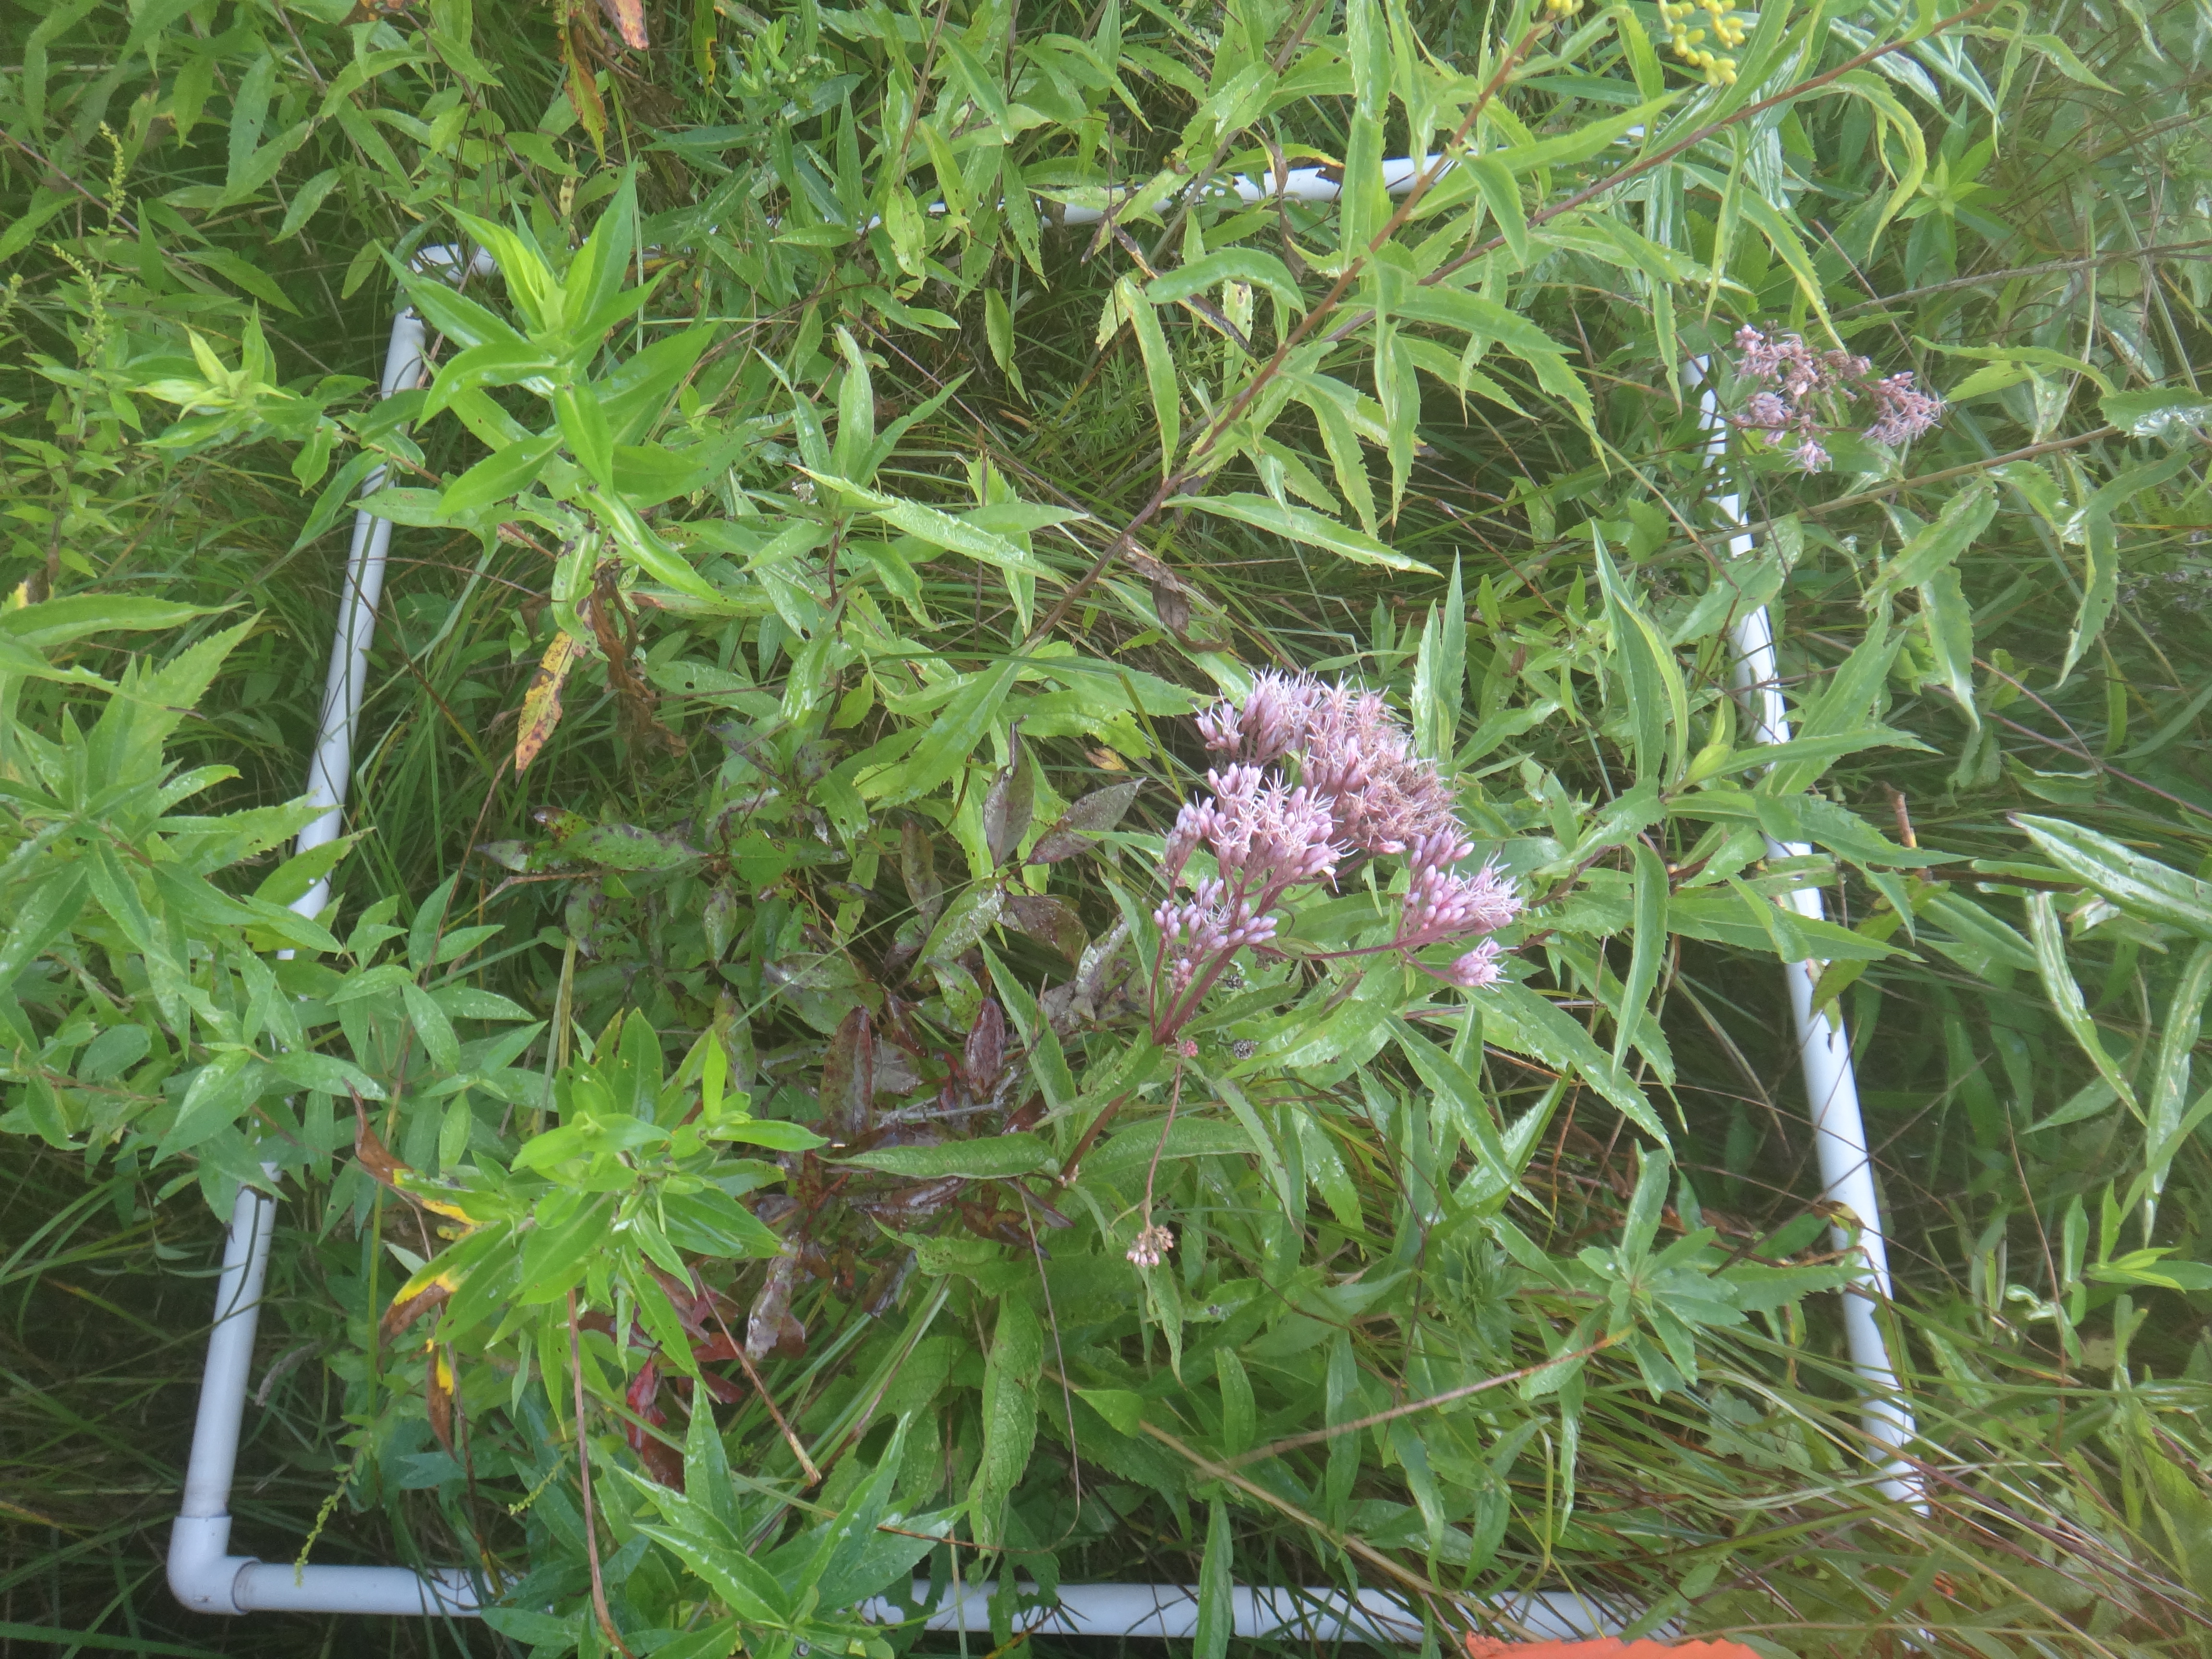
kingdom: Plantae
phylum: Tracheophyta
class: Magnoliopsida
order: Asterales
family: Asteraceae
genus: Solidago
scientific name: Solidago patula
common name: Rough-leaf goldenrod
